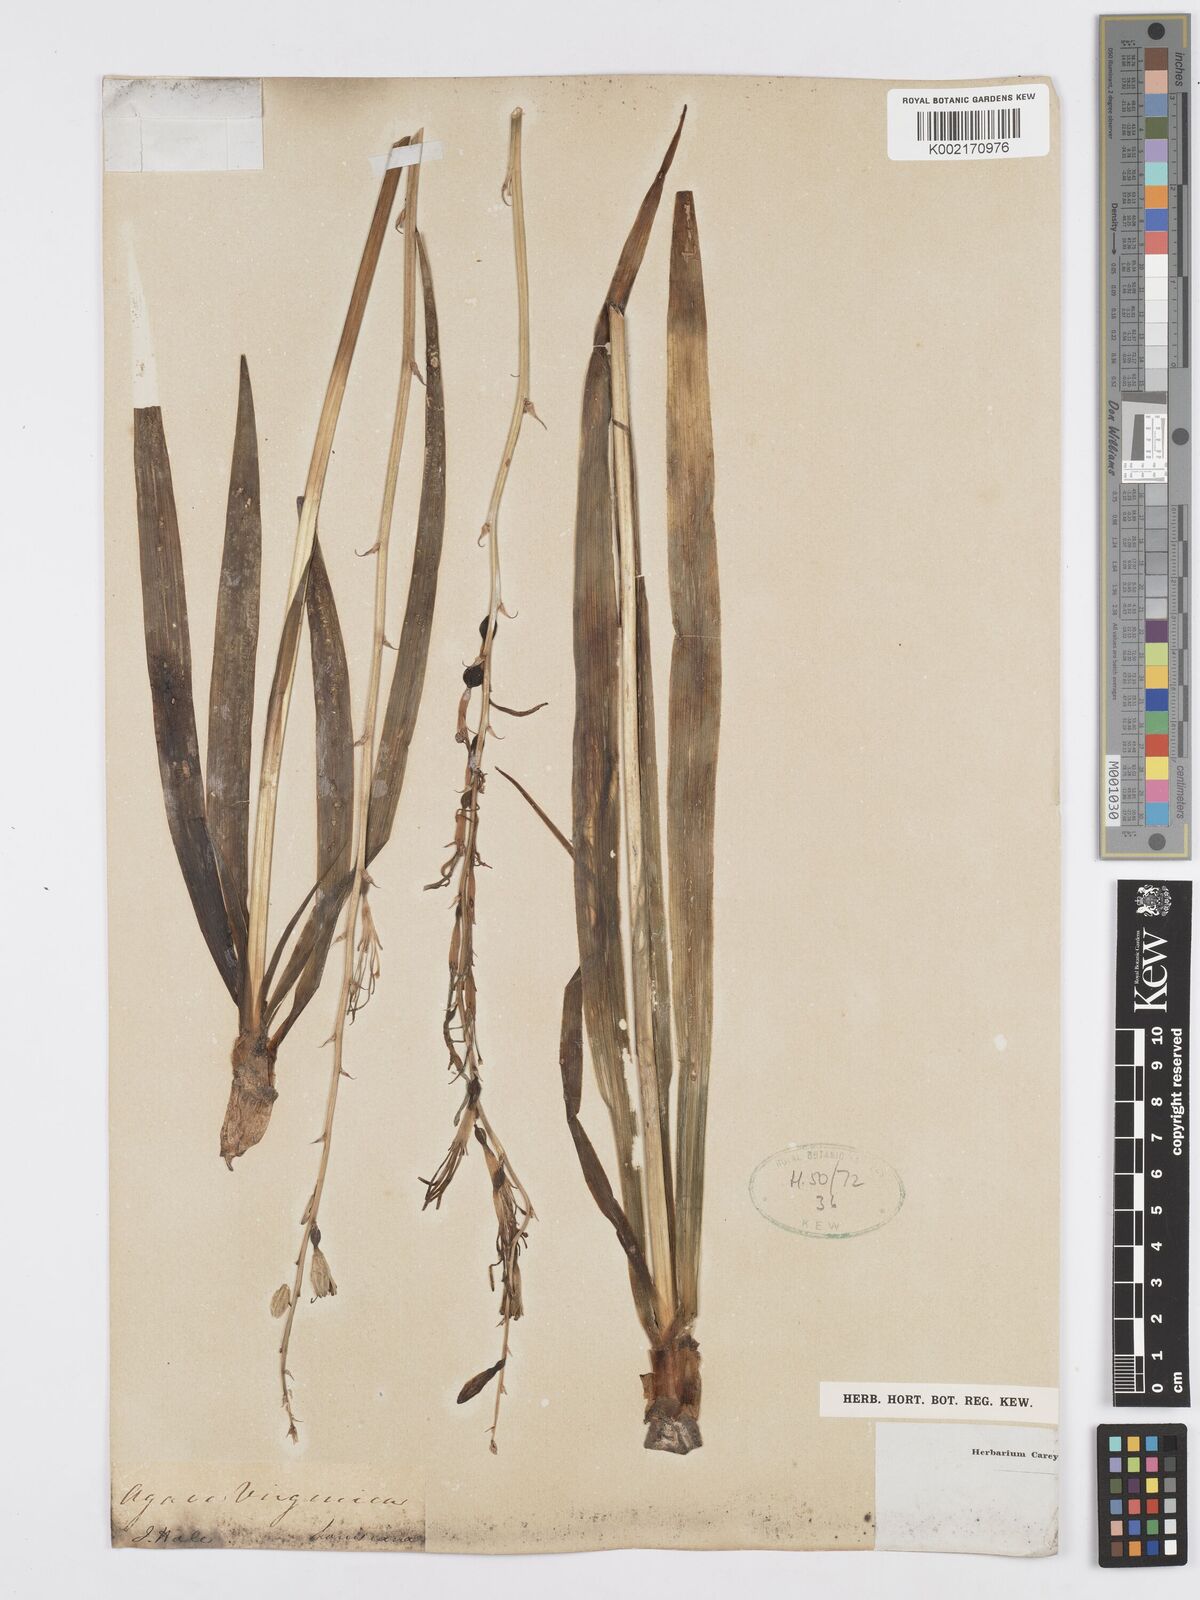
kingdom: Plantae
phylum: Tracheophyta
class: Liliopsida
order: Asparagales
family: Asparagaceae
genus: Agave
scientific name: Agave virginica
